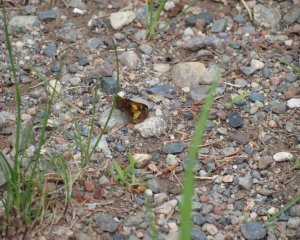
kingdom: Animalia
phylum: Arthropoda
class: Insecta
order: Lepidoptera
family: Hesperiidae
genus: Lon
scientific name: Lon hobomok
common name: Hobomok Skipper
